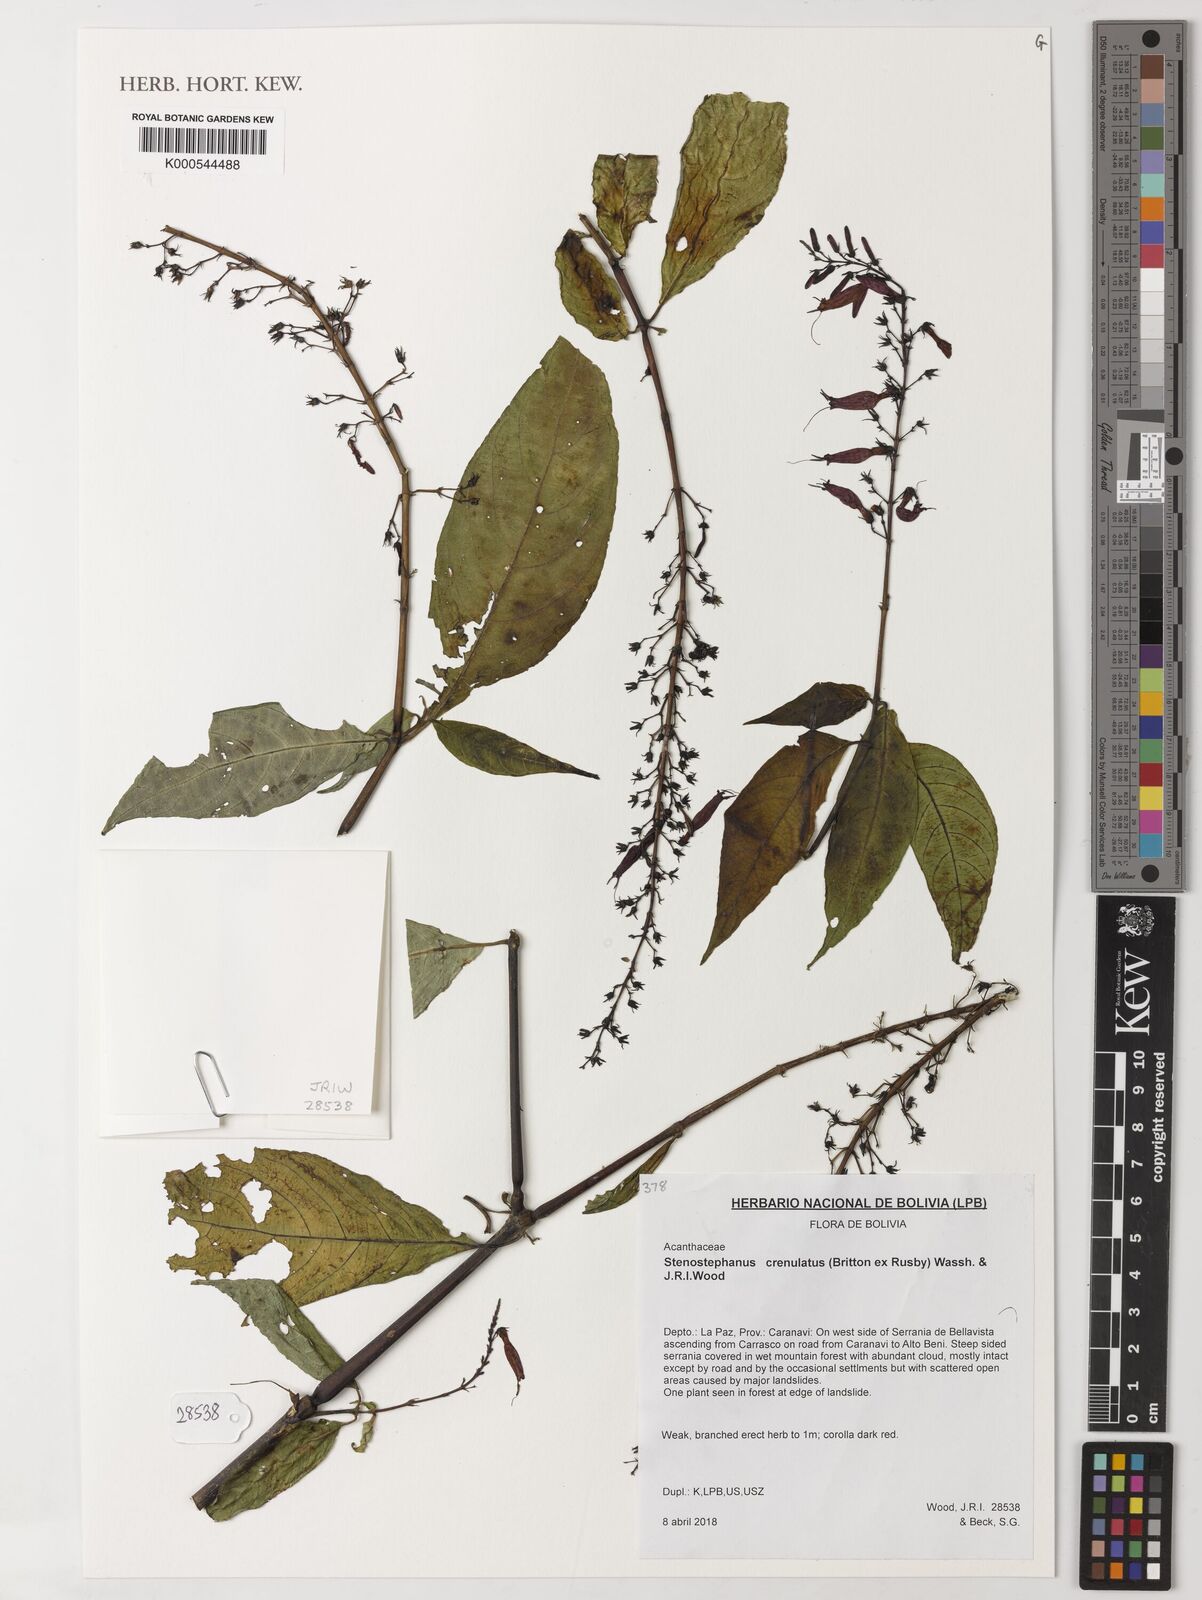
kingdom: Plantae
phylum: Tracheophyta
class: Magnoliopsida
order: Lamiales
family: Acanthaceae
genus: Stenostephanus
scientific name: Stenostephanus crenulatus
